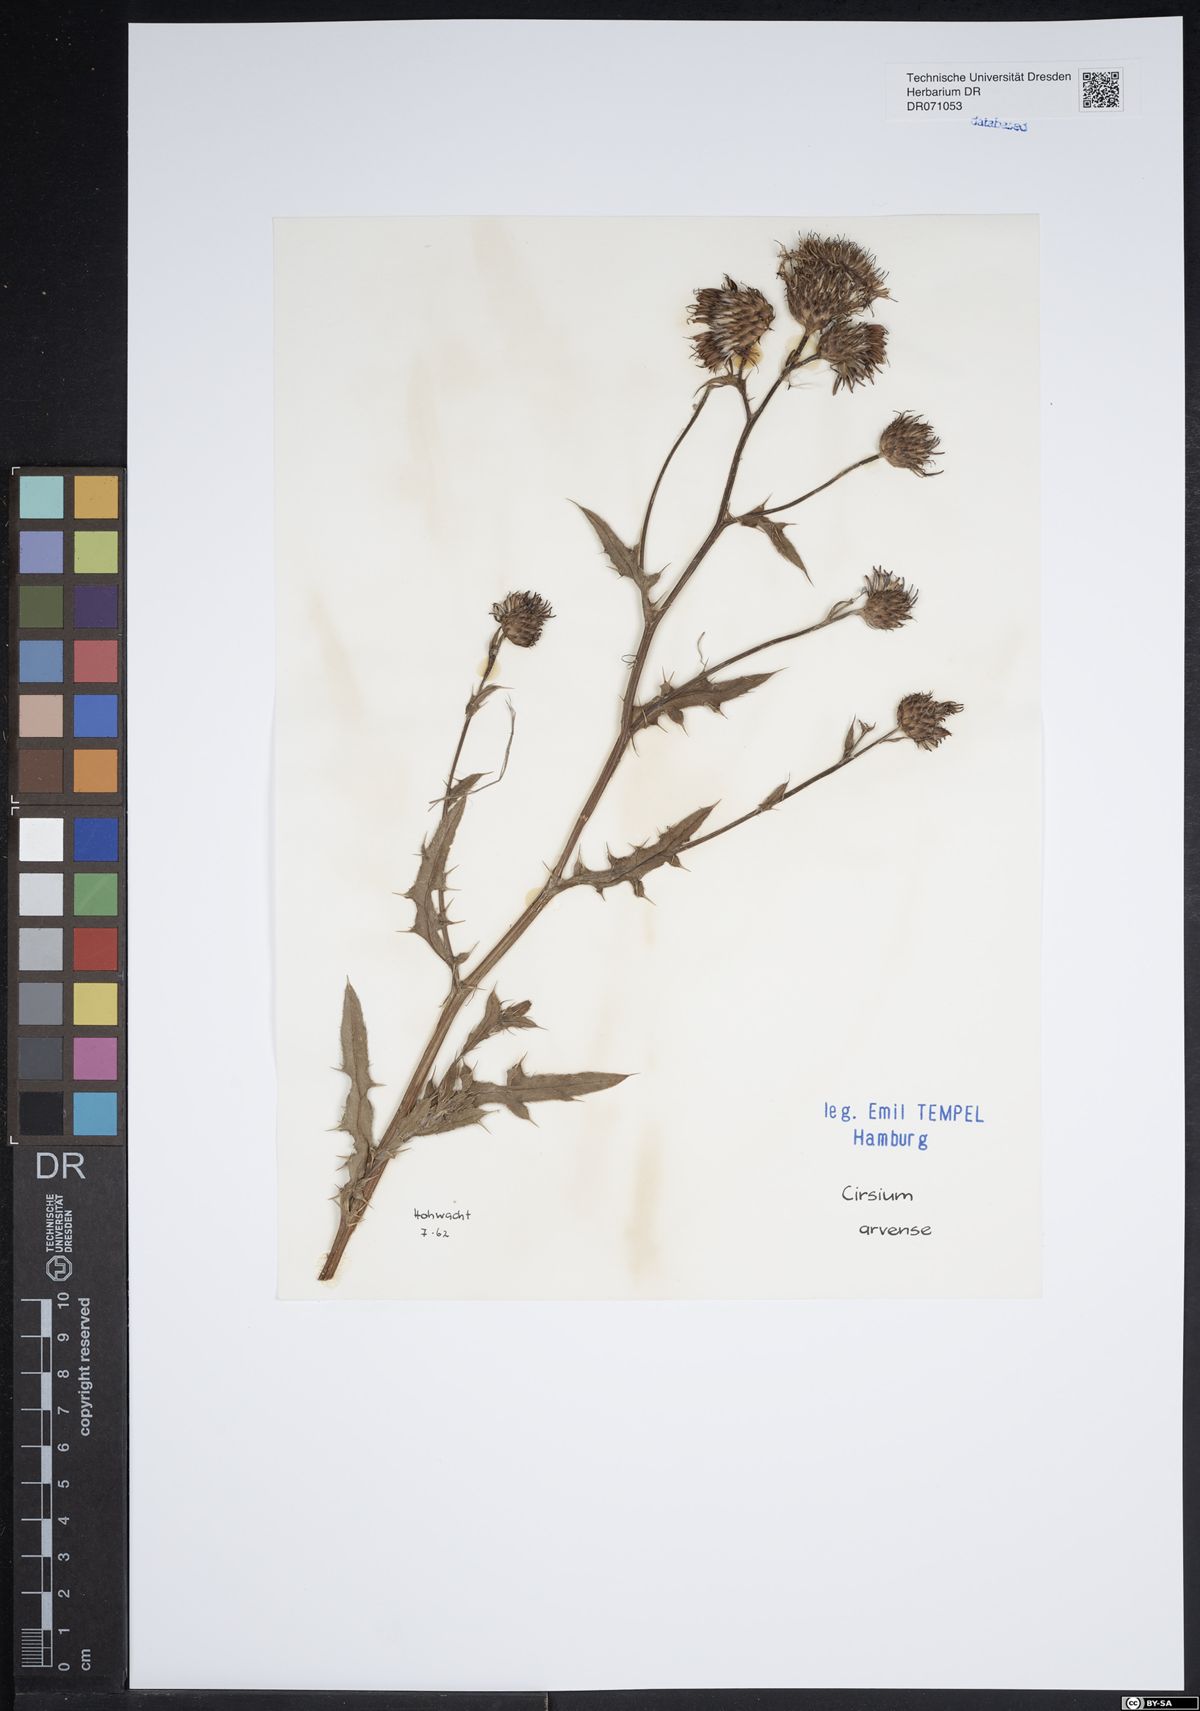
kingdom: Plantae
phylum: Tracheophyta
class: Magnoliopsida
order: Asterales
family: Asteraceae
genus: Cirsium
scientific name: Cirsium arvense
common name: Creeping thistle
